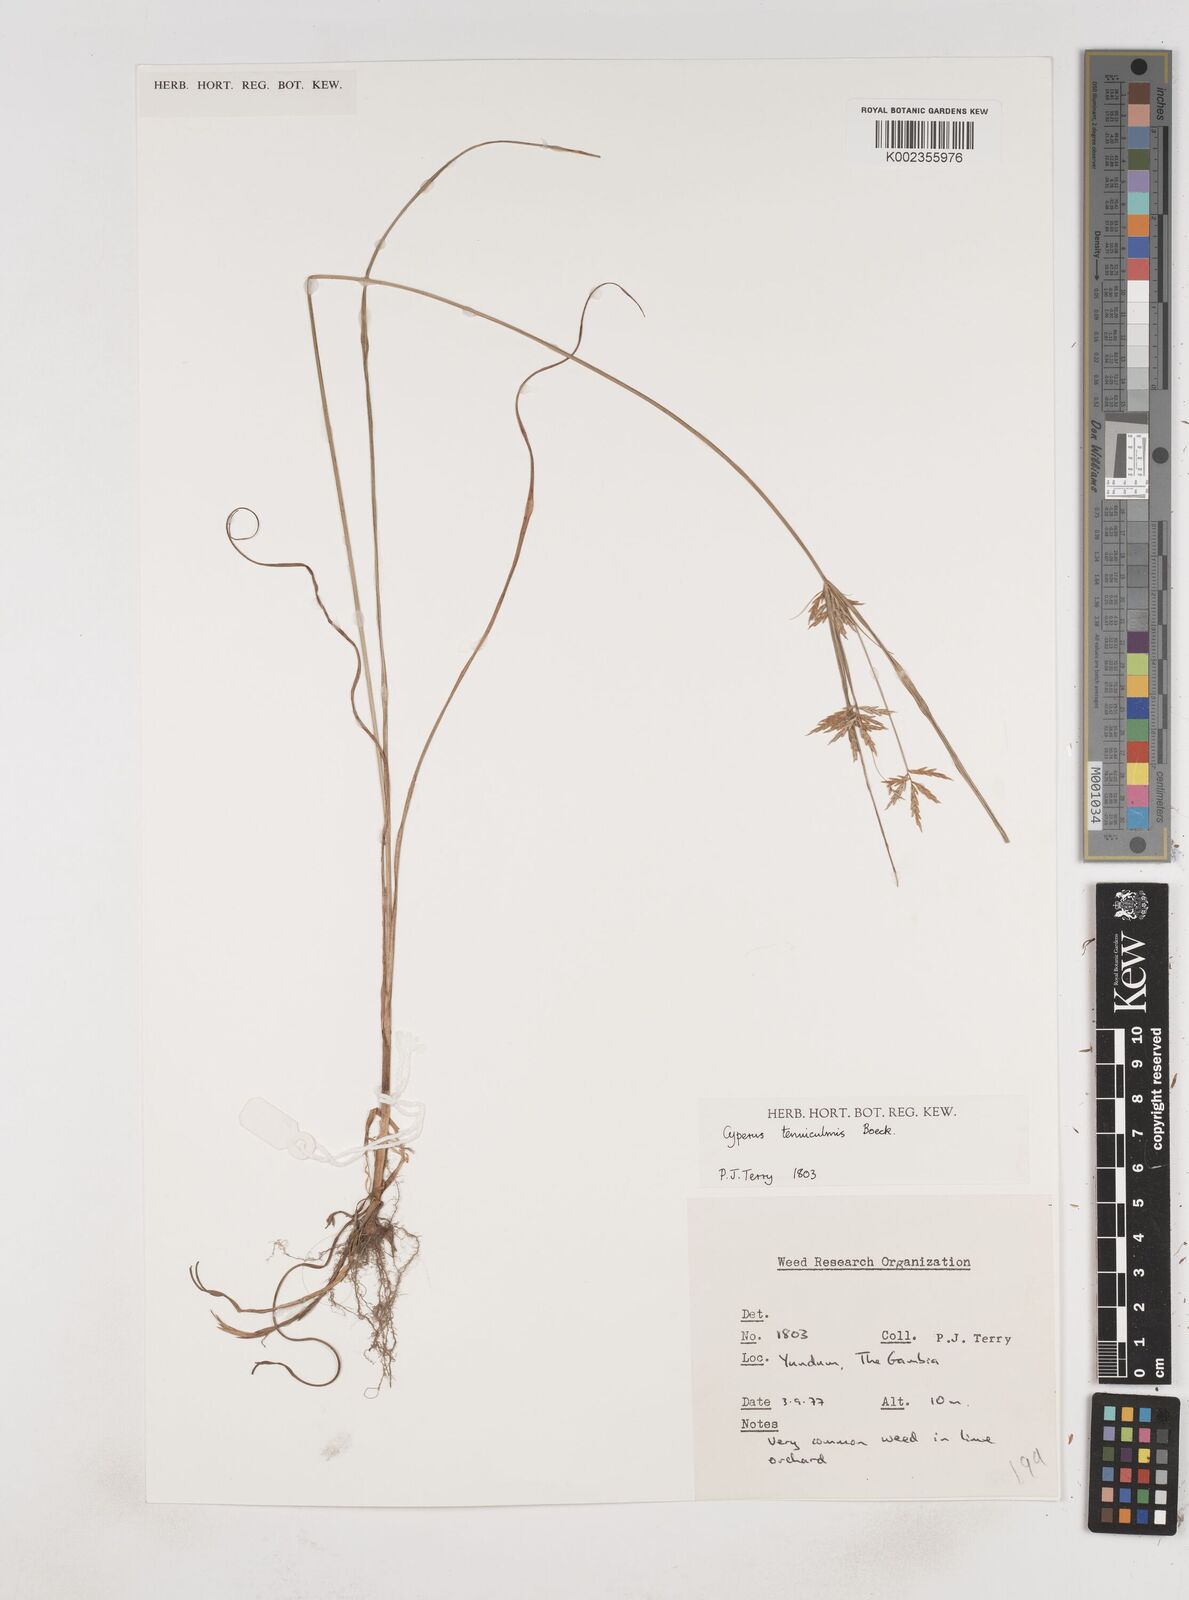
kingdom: Plantae
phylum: Tracheophyta
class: Liliopsida
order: Poales
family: Cyperaceae
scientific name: Cyperaceae
